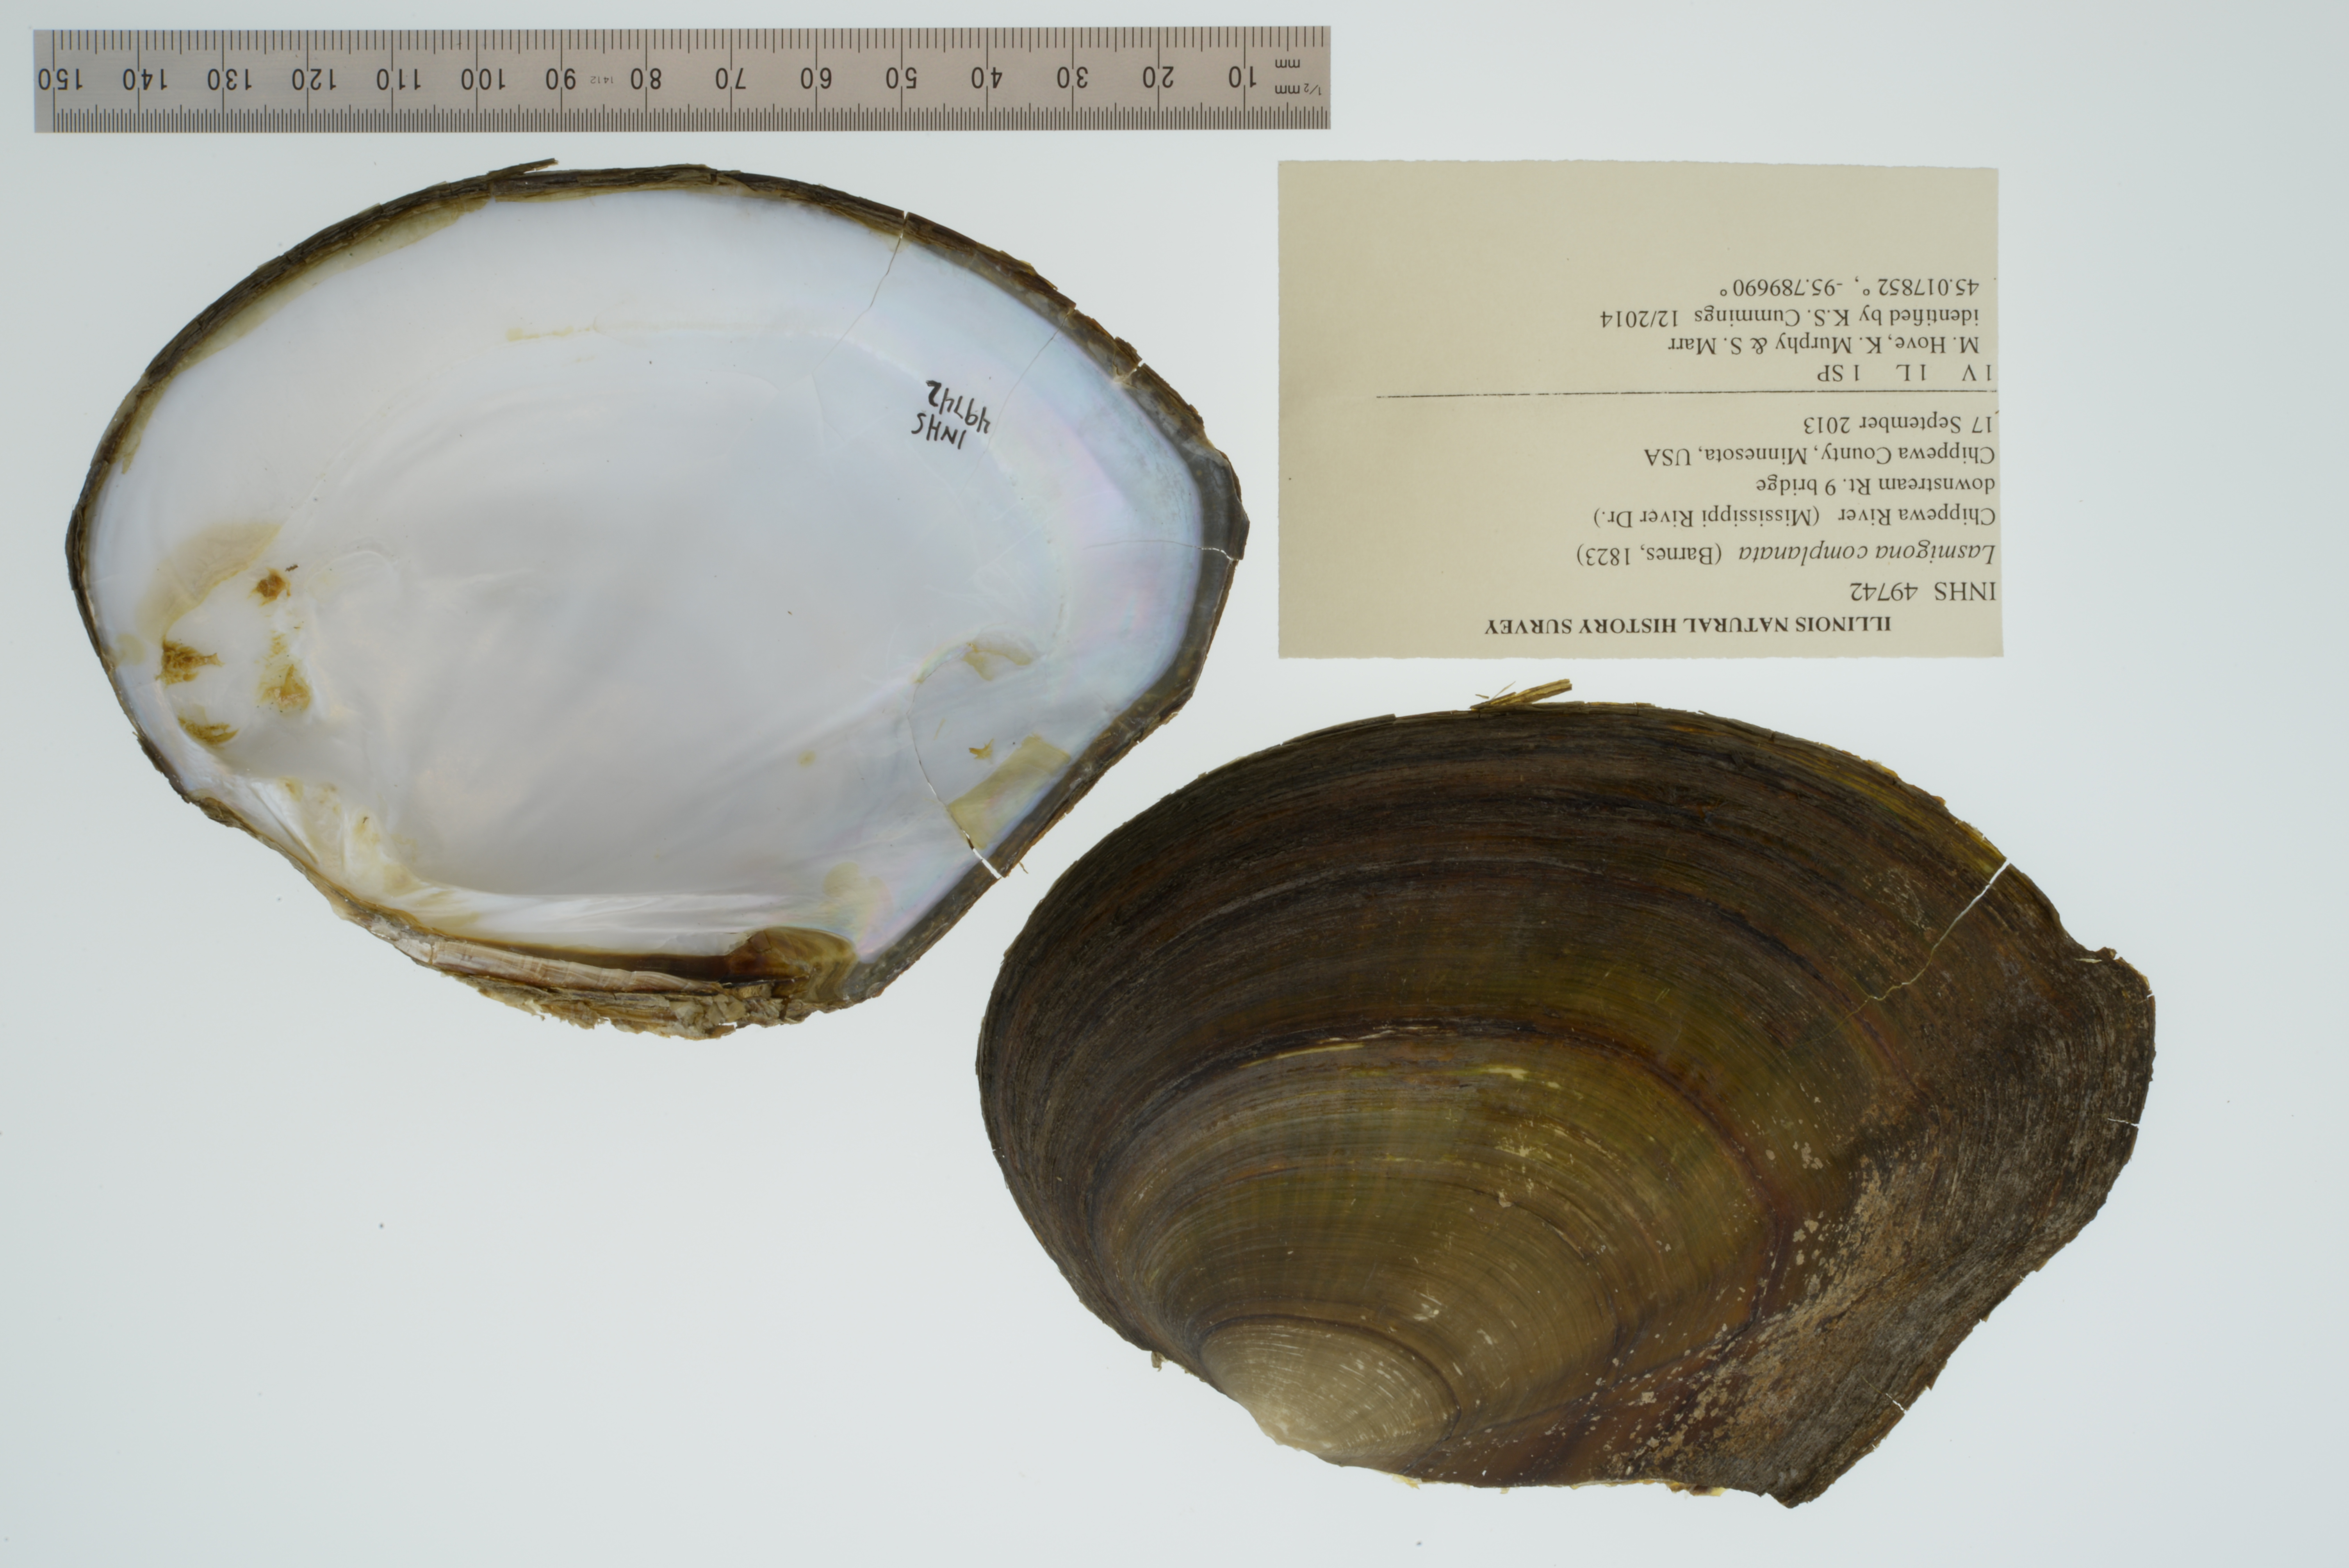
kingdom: Animalia
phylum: Mollusca
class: Bivalvia
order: Unionida
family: Unionidae
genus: Lasmigona
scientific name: Lasmigona complanata
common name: White heelsplitter
